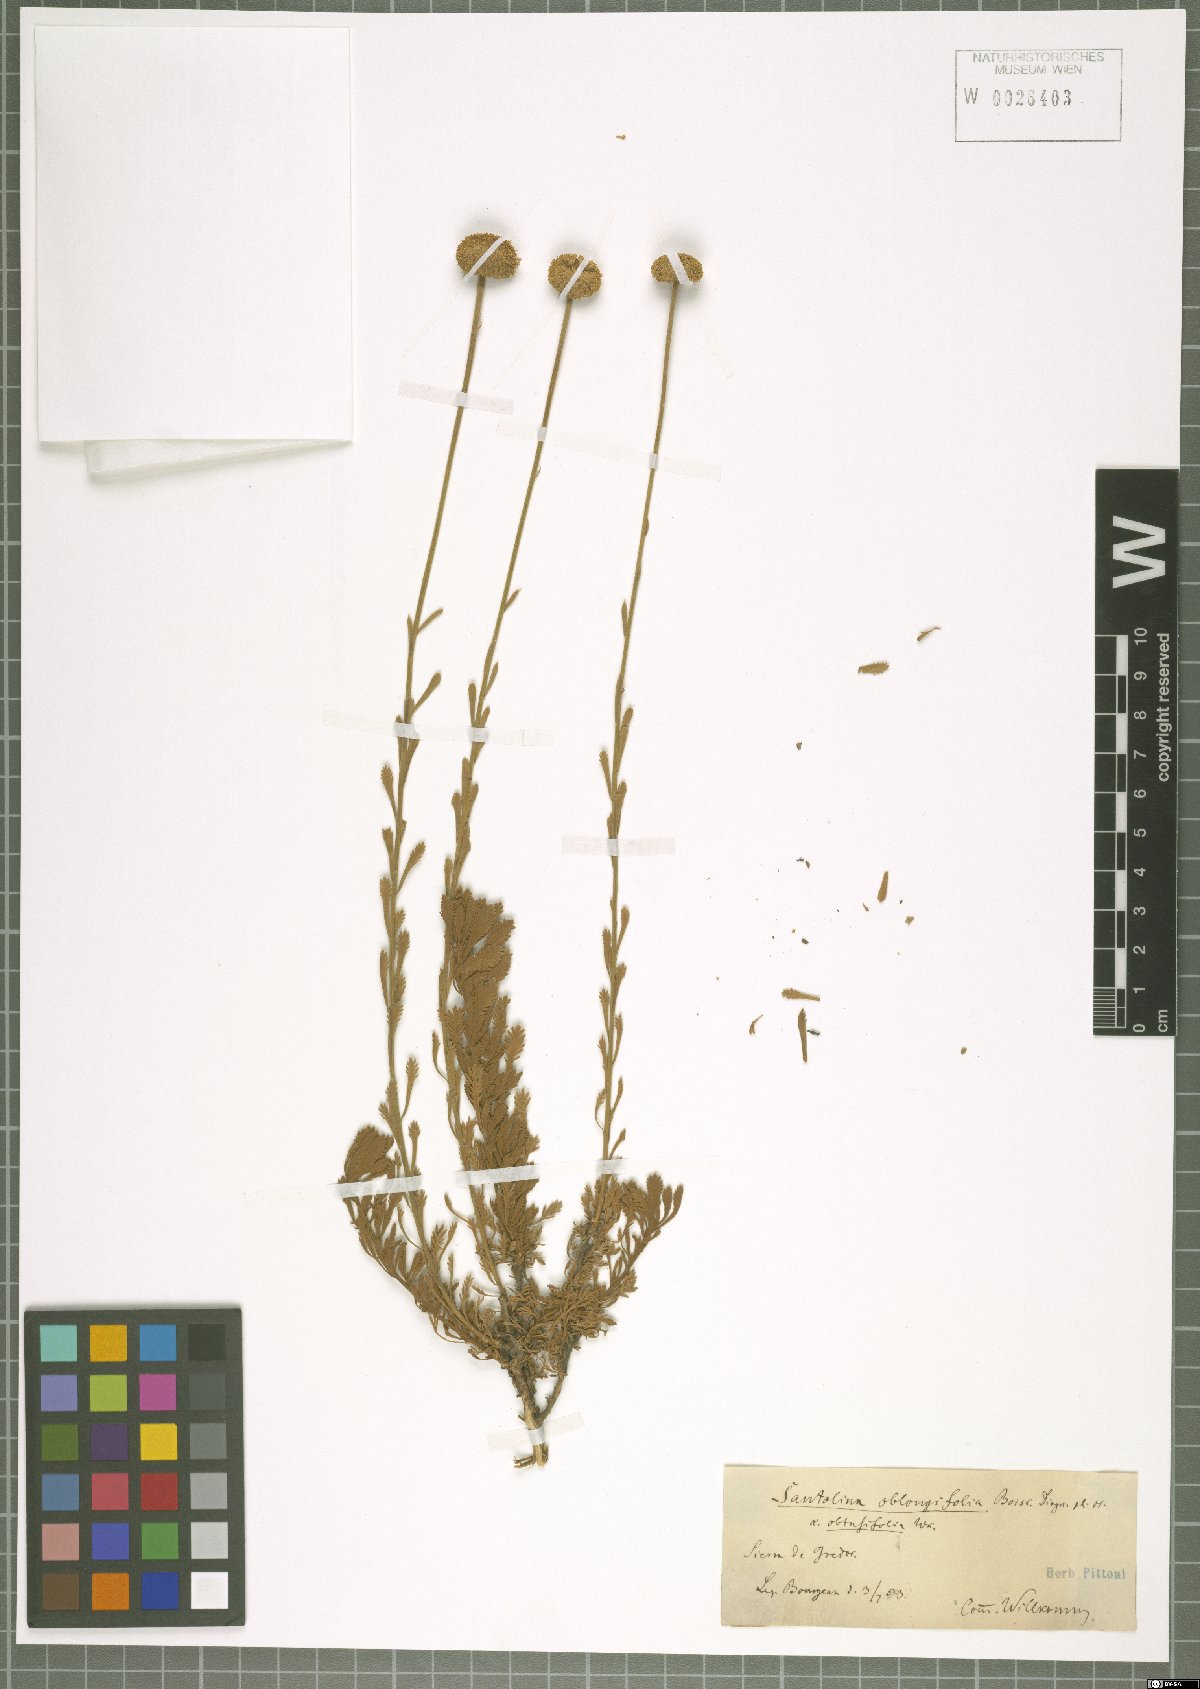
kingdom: Plantae
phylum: Tracheophyta
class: Magnoliopsida
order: Asterales
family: Asteraceae
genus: Santolina
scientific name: Santolina oblongifolia
